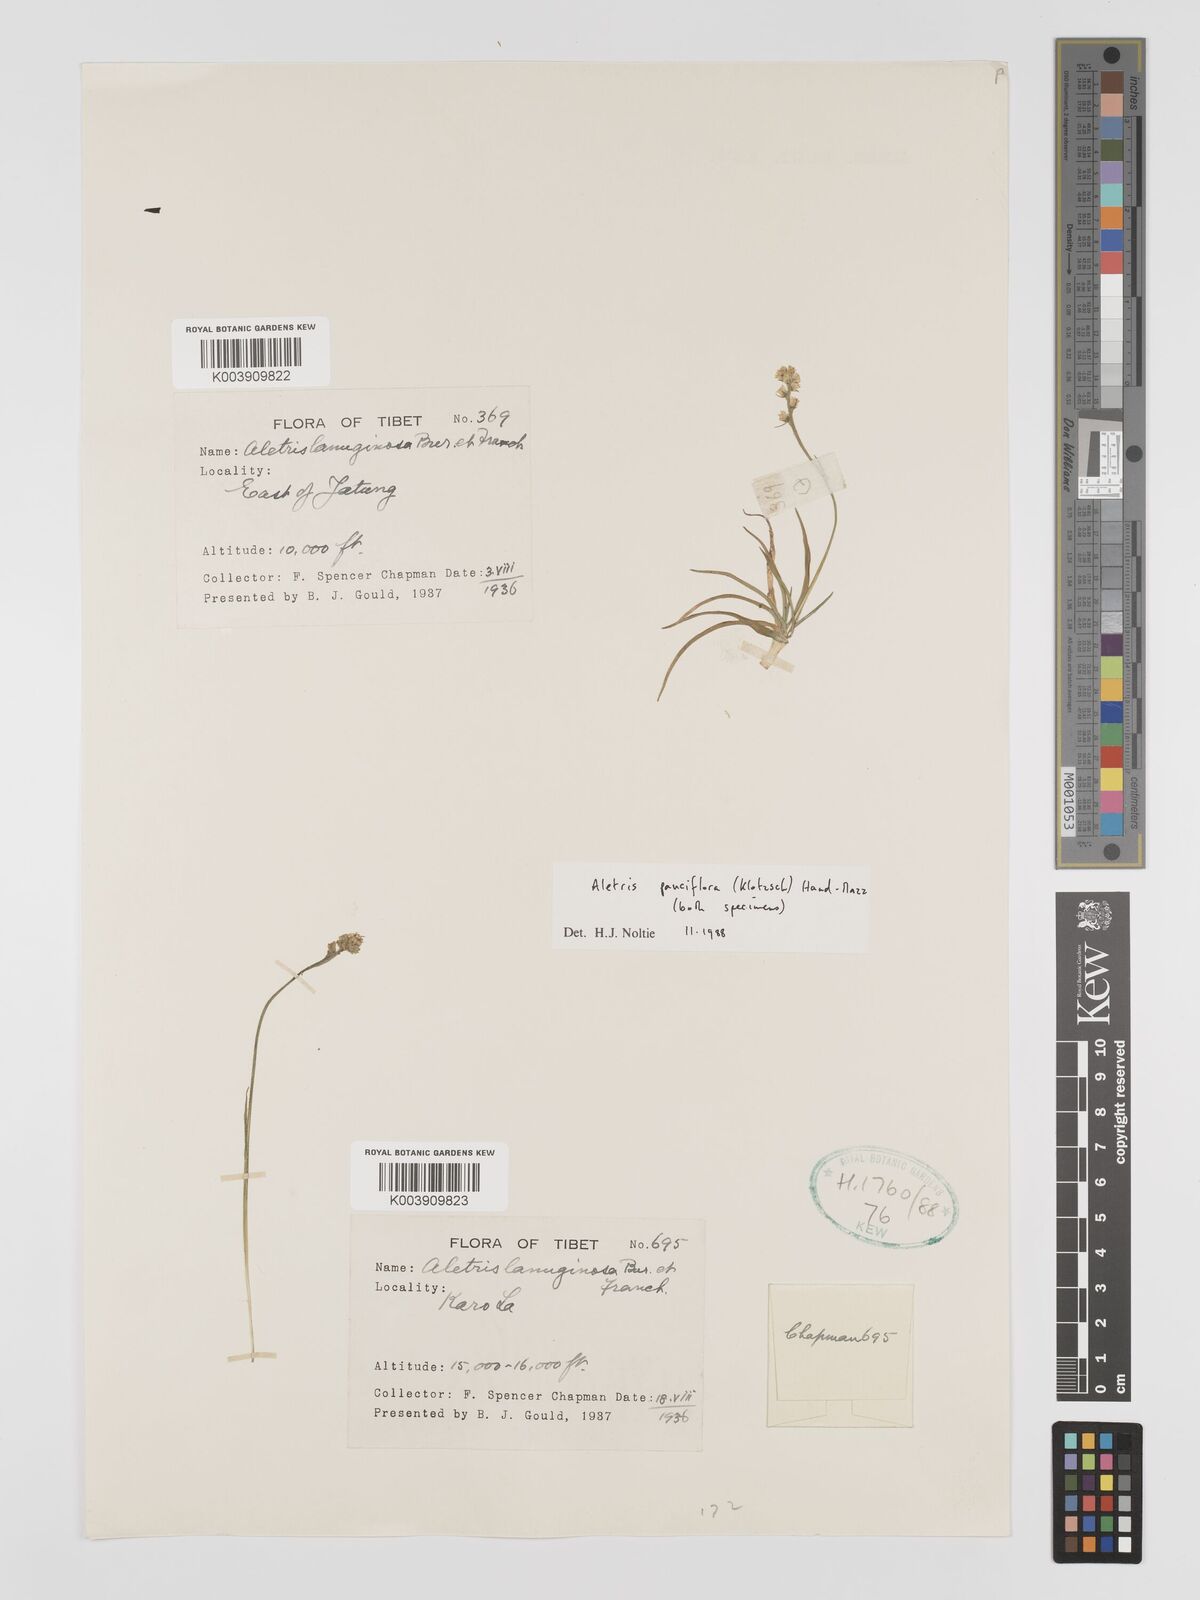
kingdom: Plantae
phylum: Tracheophyta
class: Liliopsida
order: Dioscoreales
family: Nartheciaceae
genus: Aletris
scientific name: Aletris pauciflora
